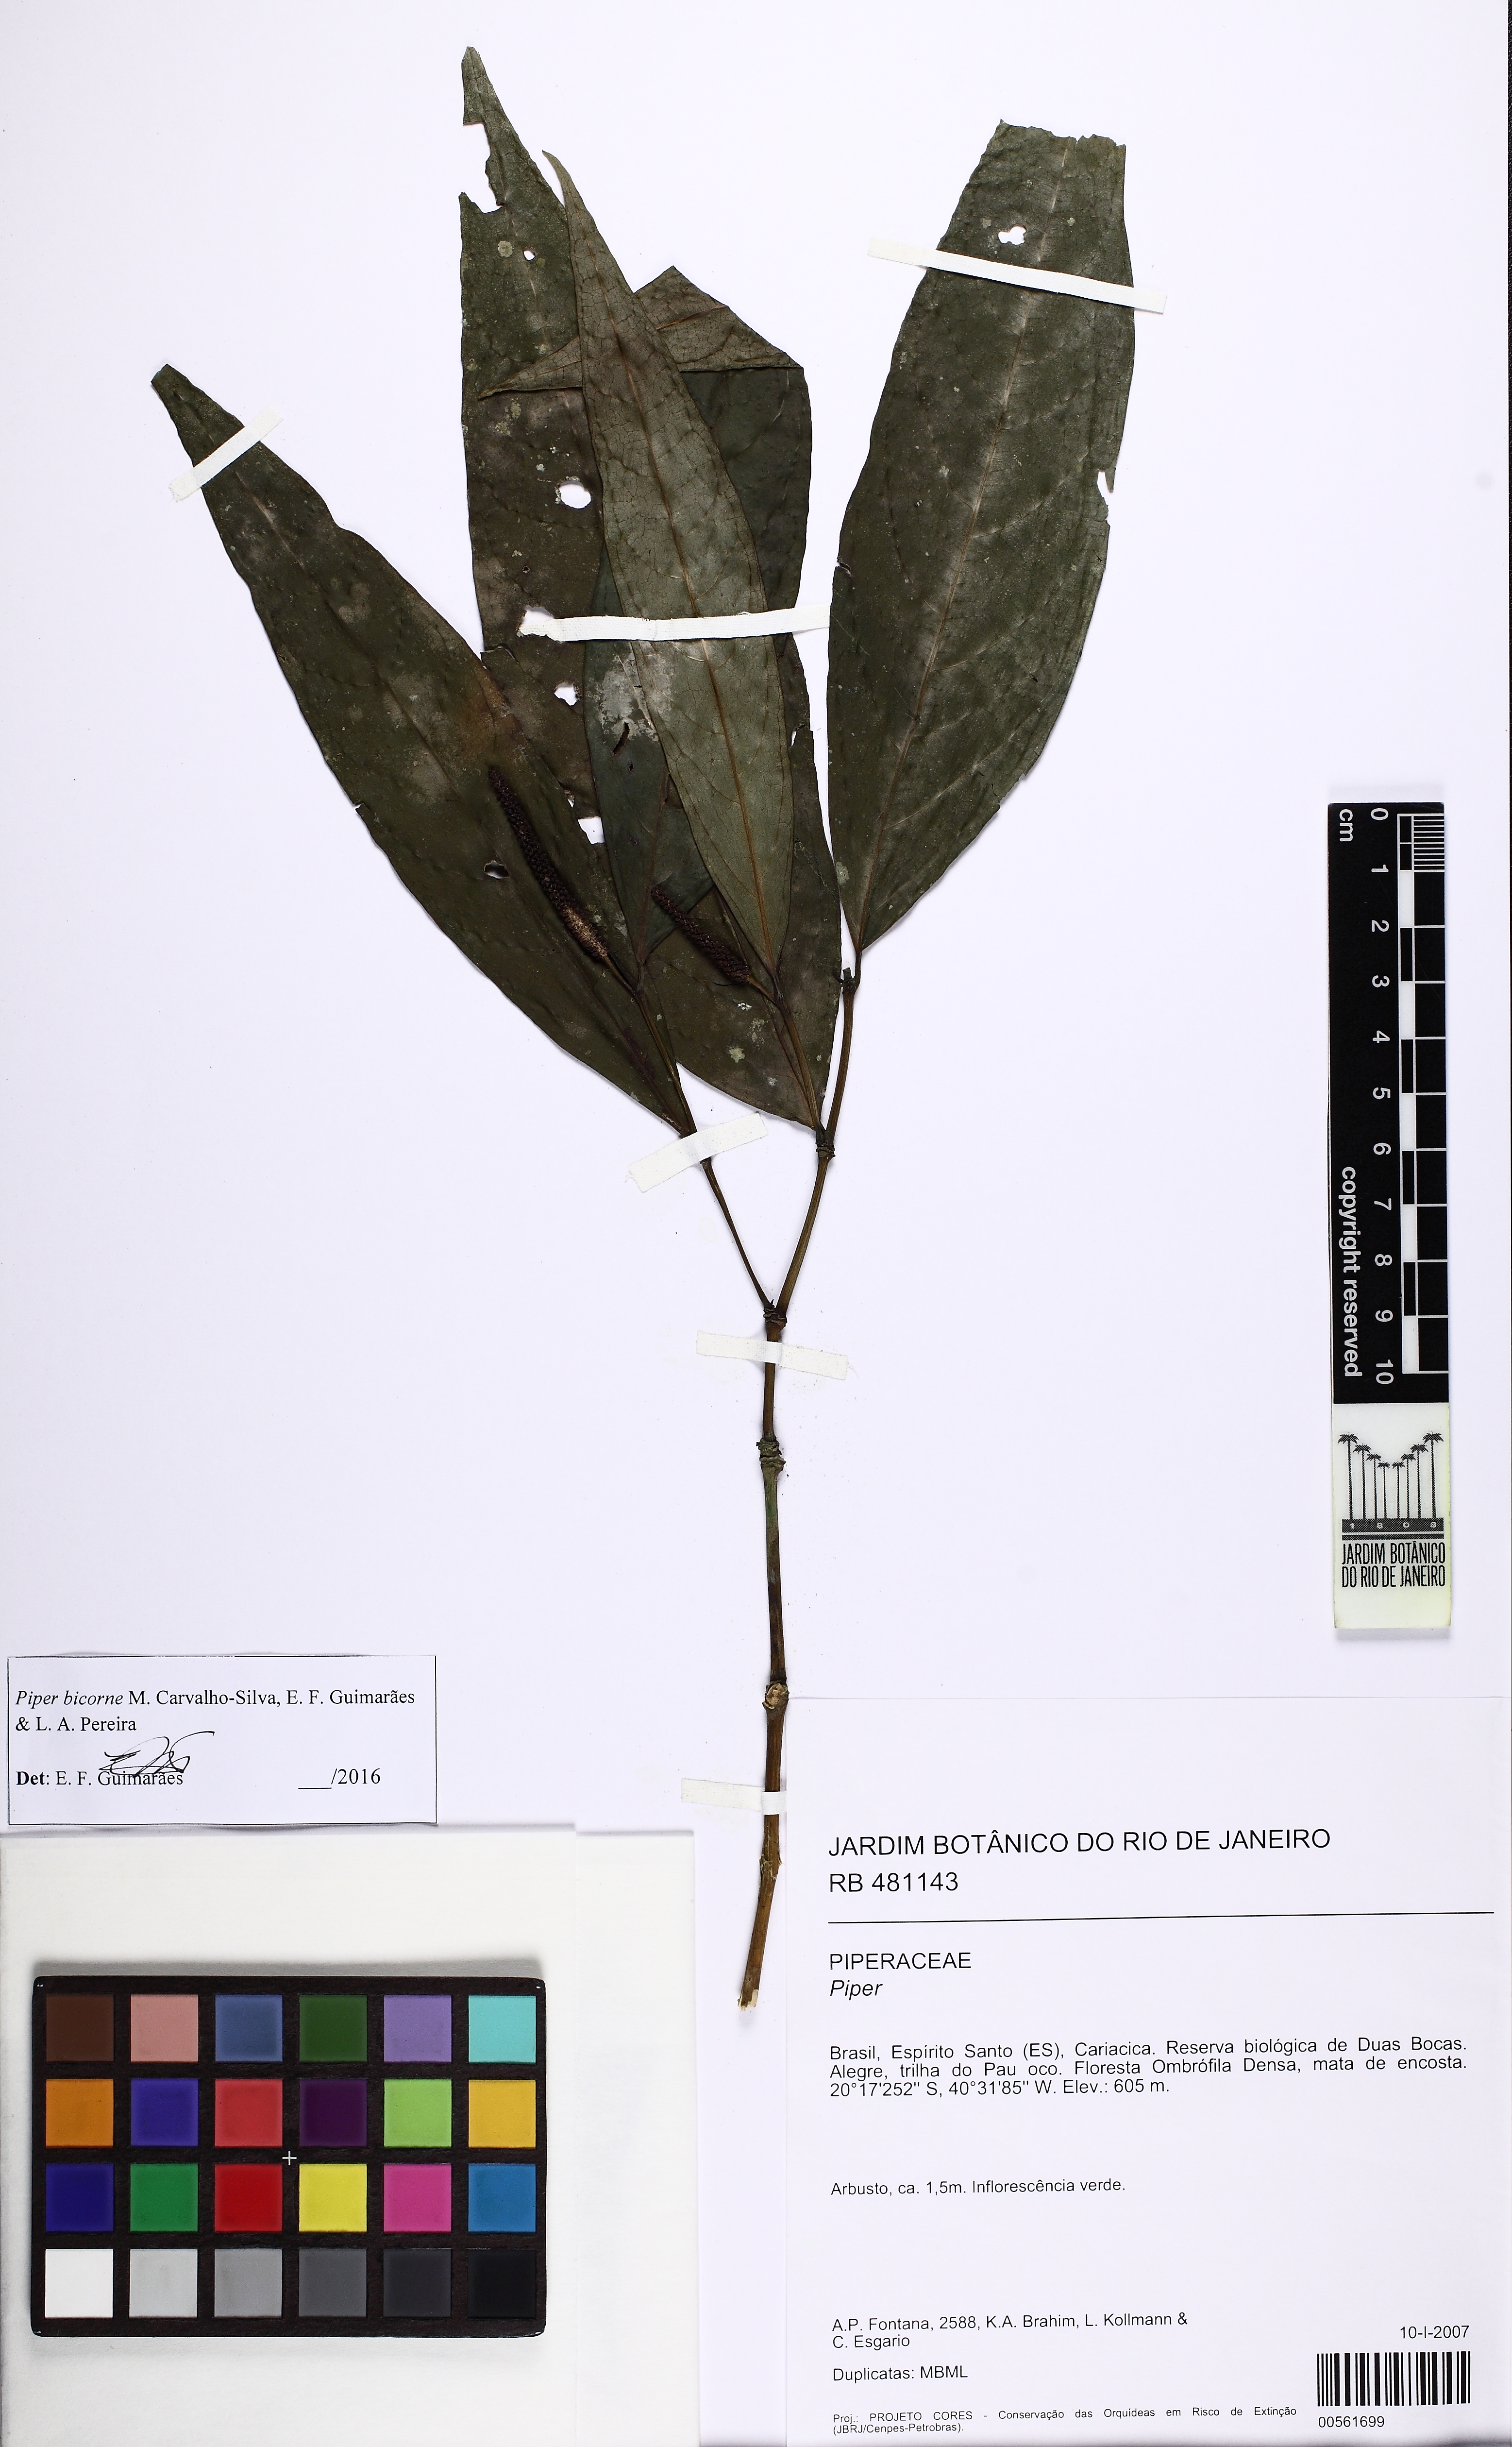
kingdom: Plantae
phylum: Tracheophyta
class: Magnoliopsida
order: Piperales
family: Piperaceae
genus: Piper
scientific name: Piper bicorne
